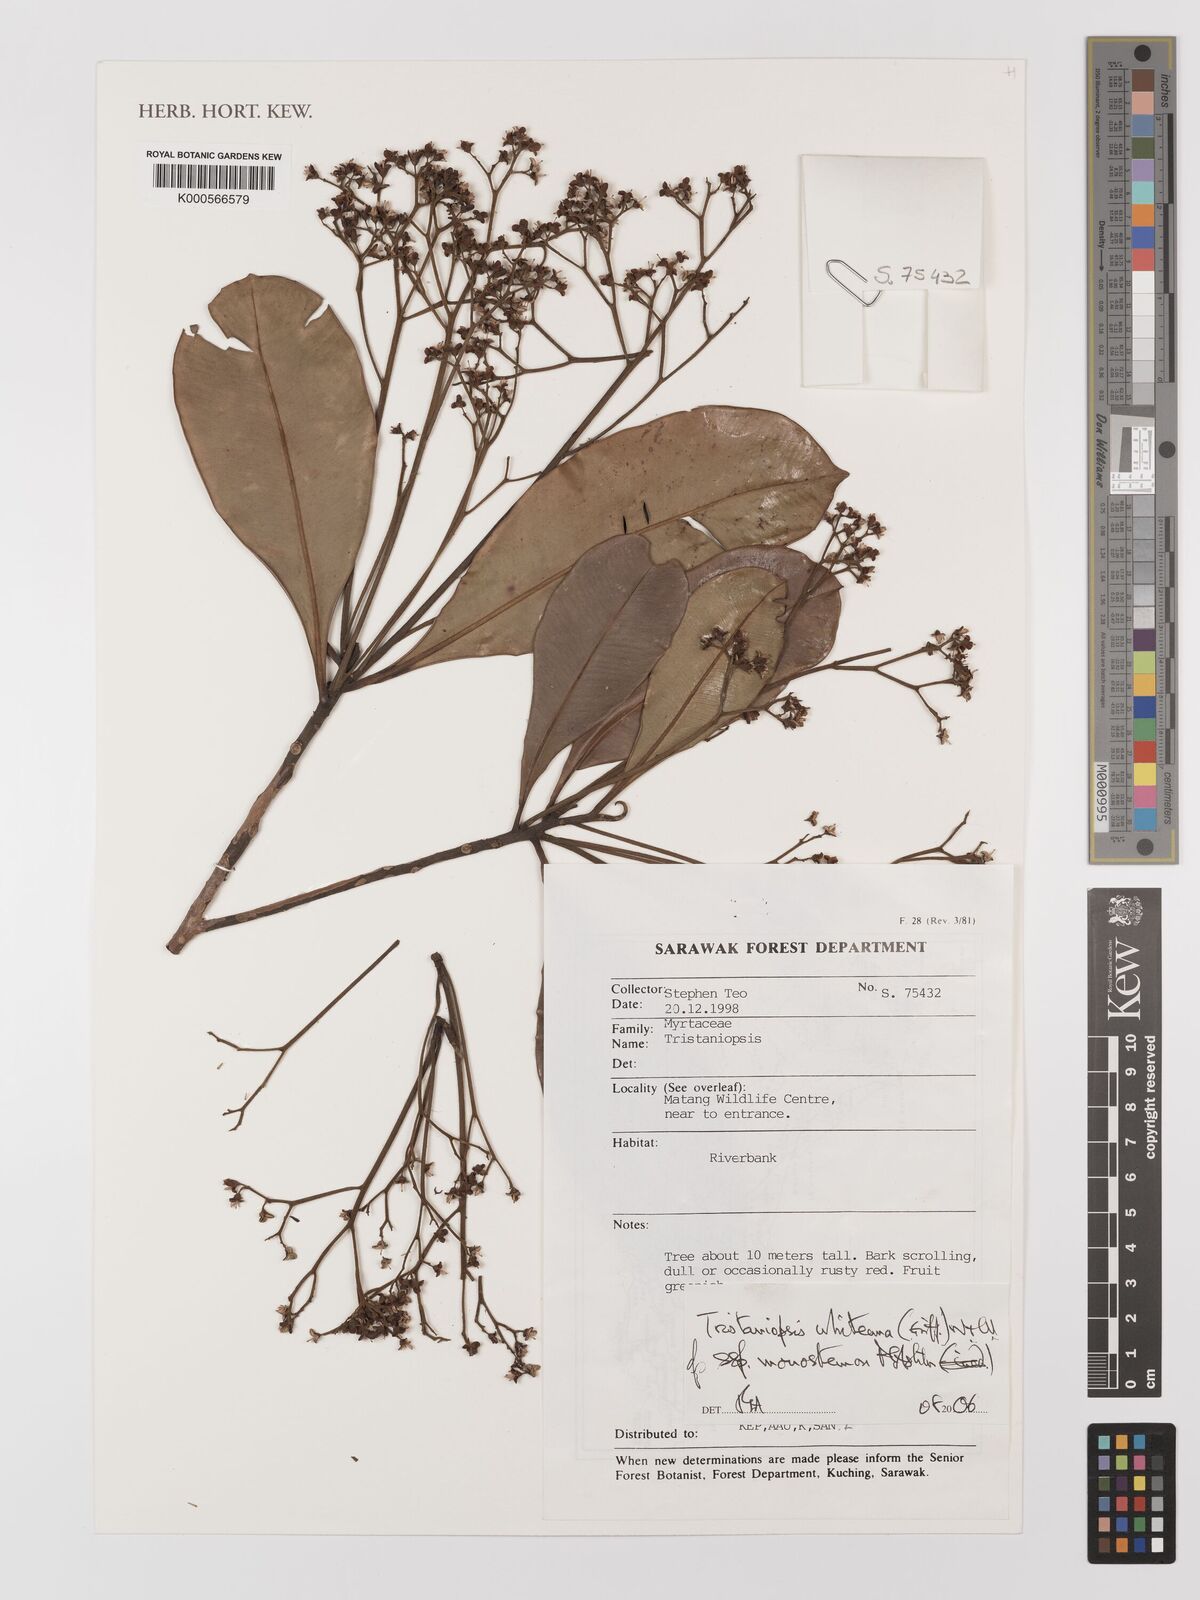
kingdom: Plantae
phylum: Tracheophyta
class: Magnoliopsida
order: Myrtales
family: Myrtaceae
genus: Tristaniopsis
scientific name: Tristaniopsis whiteana
